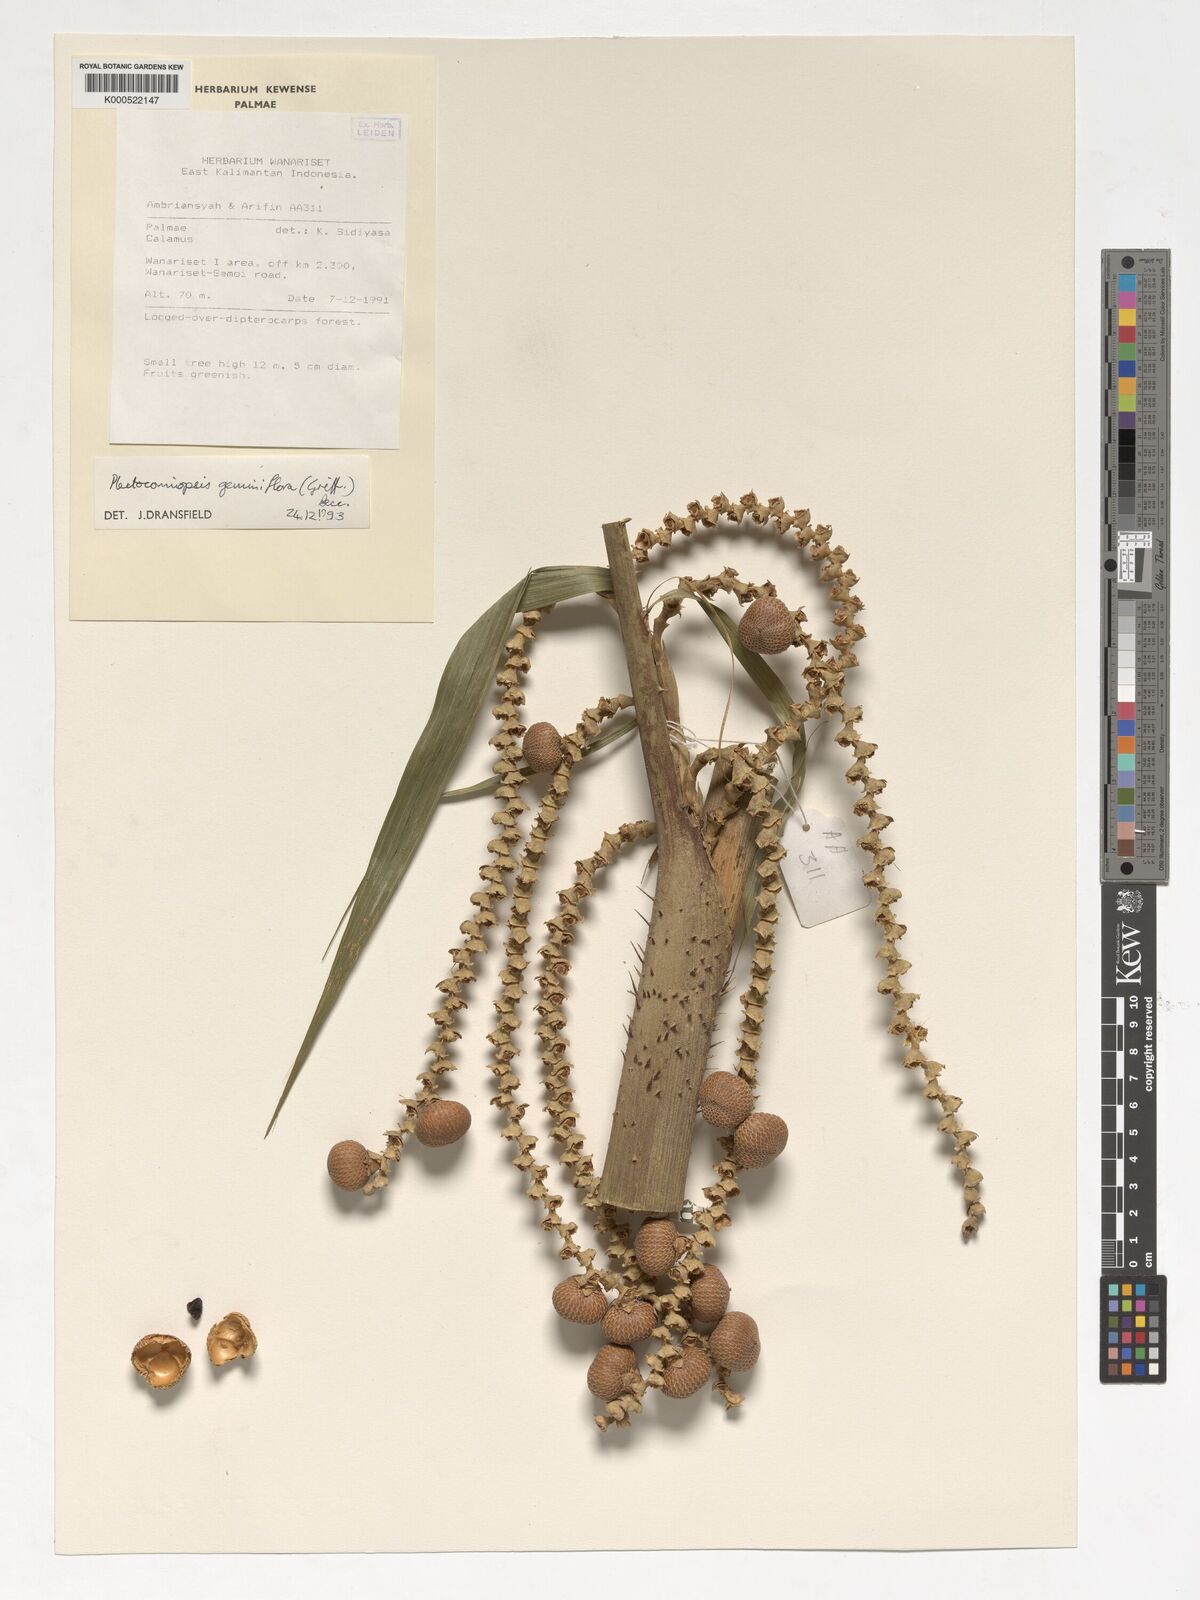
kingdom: Plantae
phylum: Tracheophyta
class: Liliopsida
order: Arecales
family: Arecaceae
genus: Plectocomiopsis
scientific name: Plectocomiopsis geminiflora
